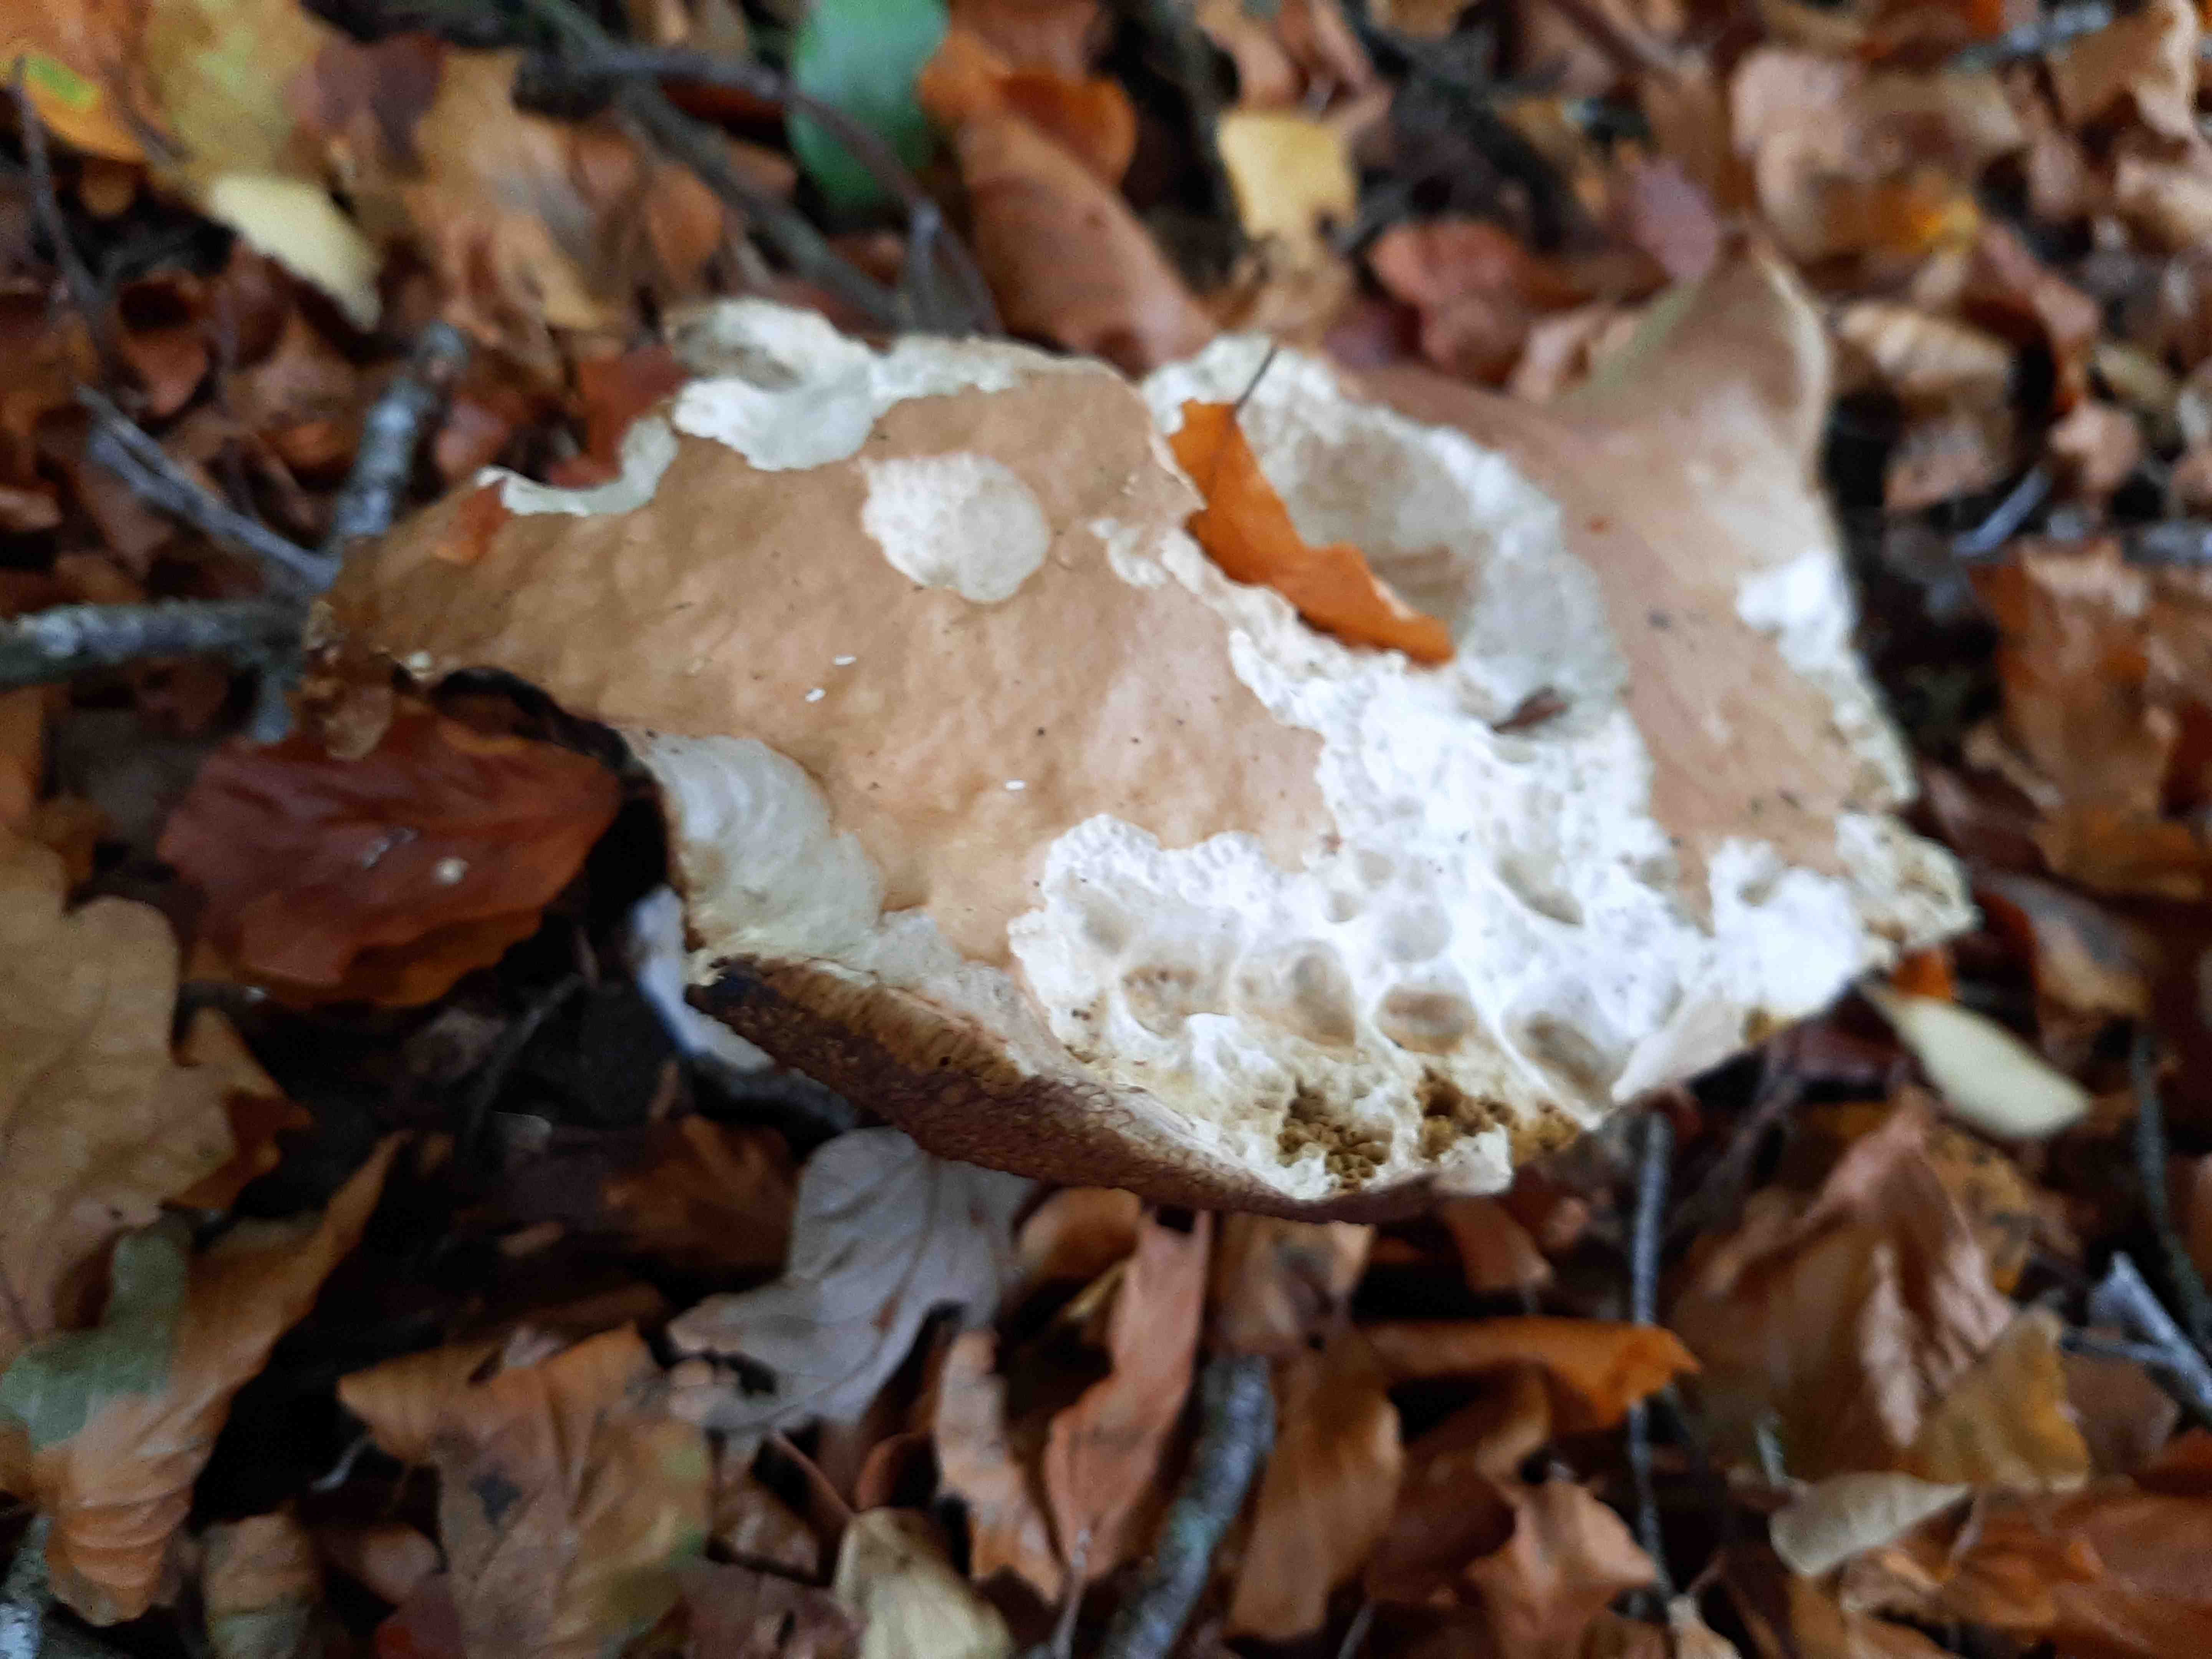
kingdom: Fungi
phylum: Basidiomycota
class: Agaricomycetes
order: Boletales
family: Boletaceae
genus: Boletus
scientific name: Boletus edulis
